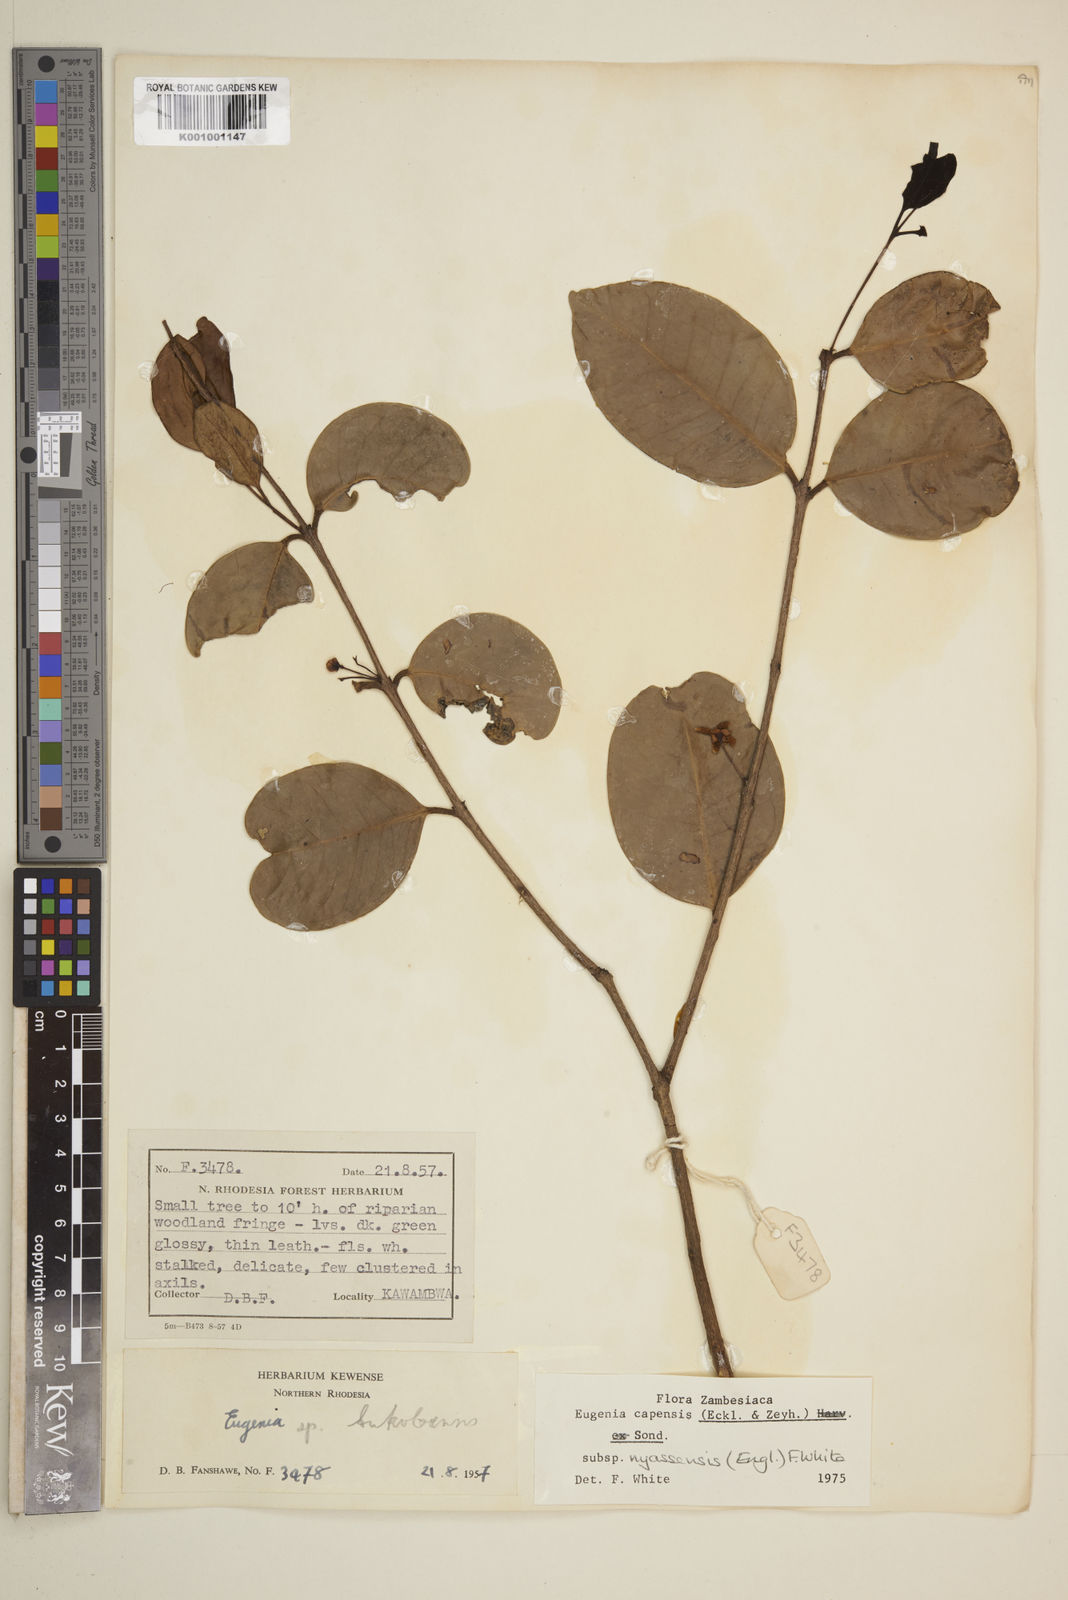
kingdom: Plantae
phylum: Tracheophyta
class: Magnoliopsida
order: Myrtales
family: Myrtaceae
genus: Eugenia
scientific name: Eugenia capensis
